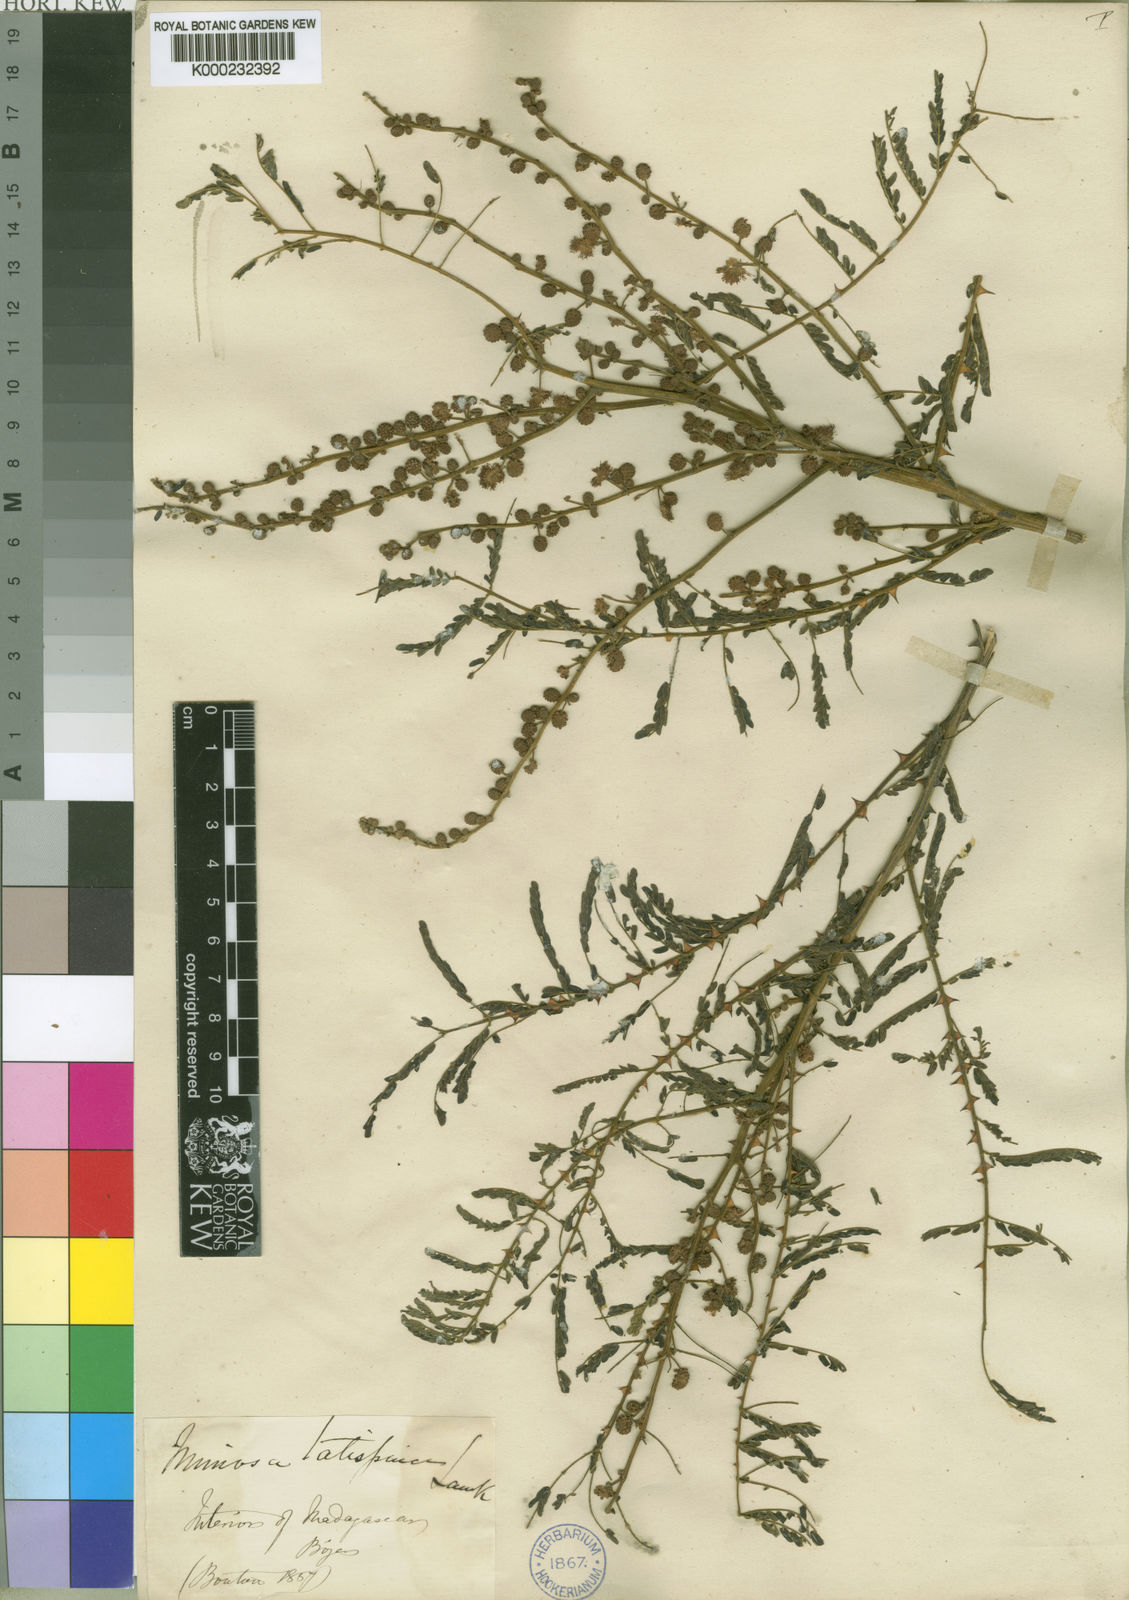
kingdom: Plantae
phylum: Tracheophyta
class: Magnoliopsida
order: Fabales
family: Fabaceae
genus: Mimosa
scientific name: Mimosa latispinosa
